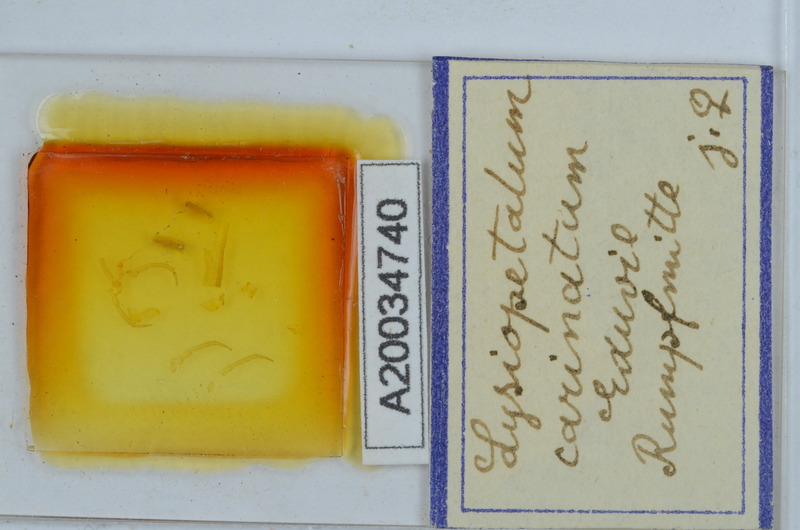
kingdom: Animalia
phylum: Arthropoda
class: Diplopoda
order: Callipodida
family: Schizopetalidae
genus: Acanthopetalum
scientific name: Acanthopetalum carinatum
